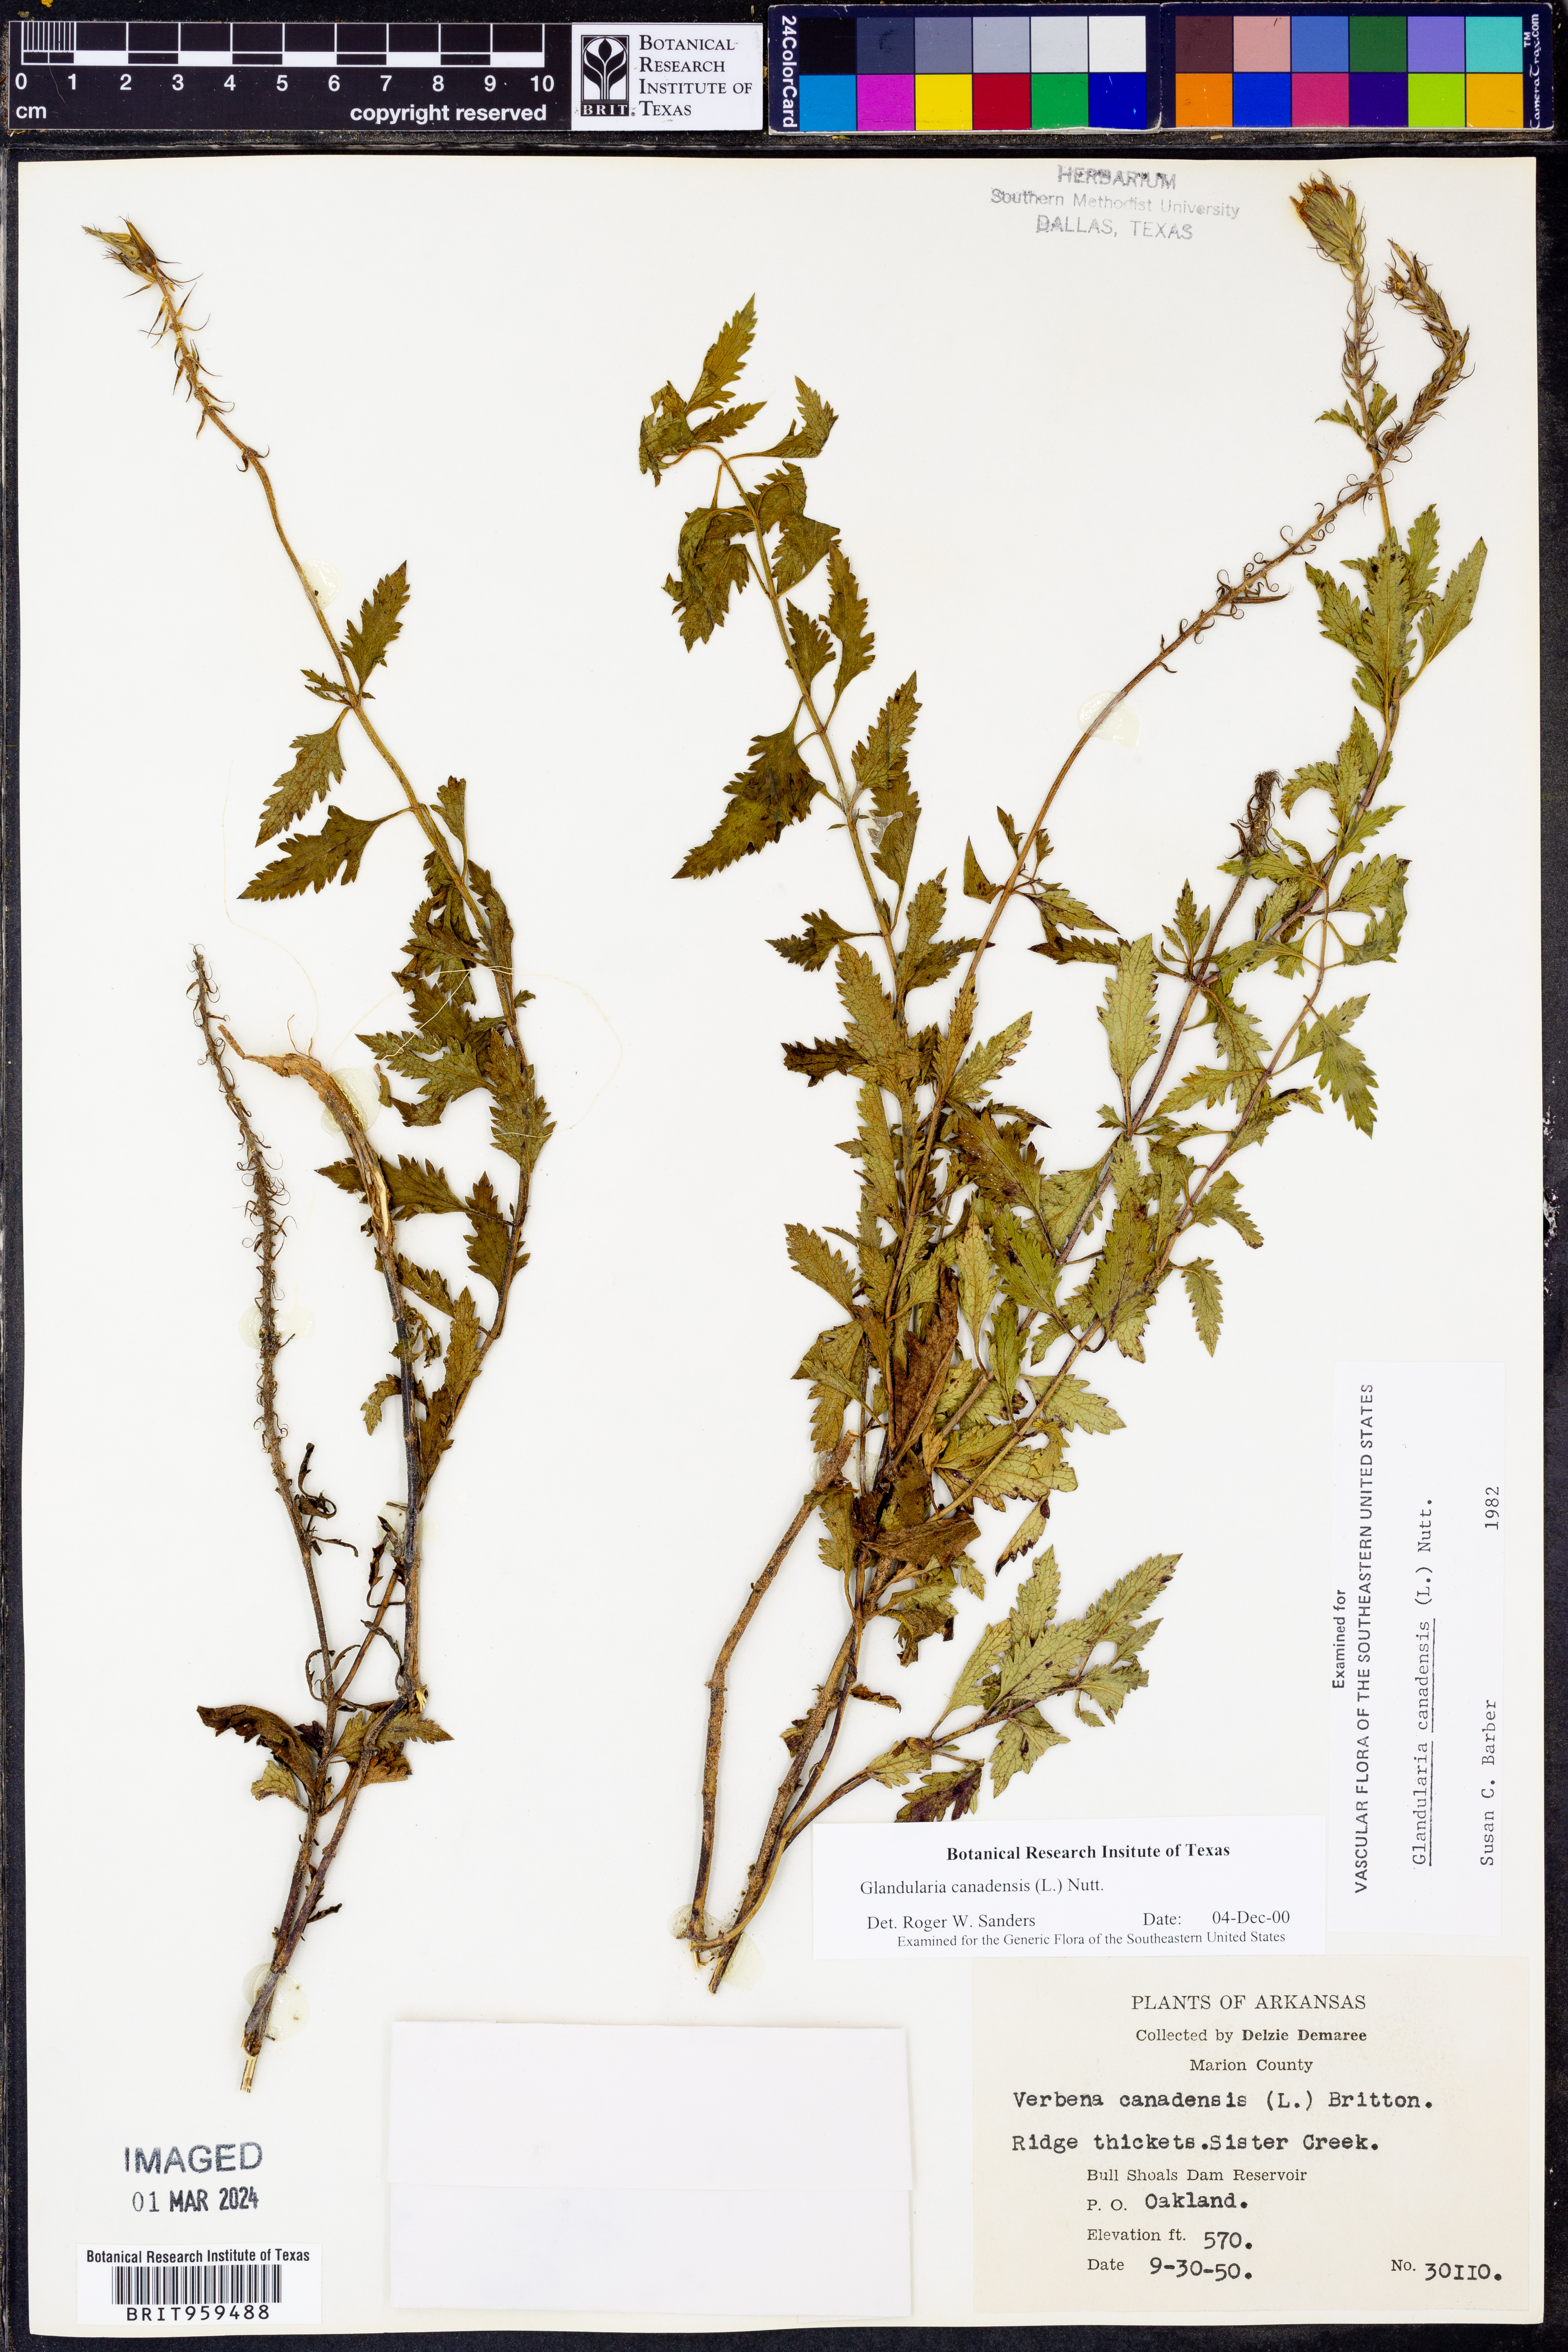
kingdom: Plantae
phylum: Tracheophyta
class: Magnoliopsida
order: Lamiales
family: Verbenaceae
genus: Verbena
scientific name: Verbena canadensis
